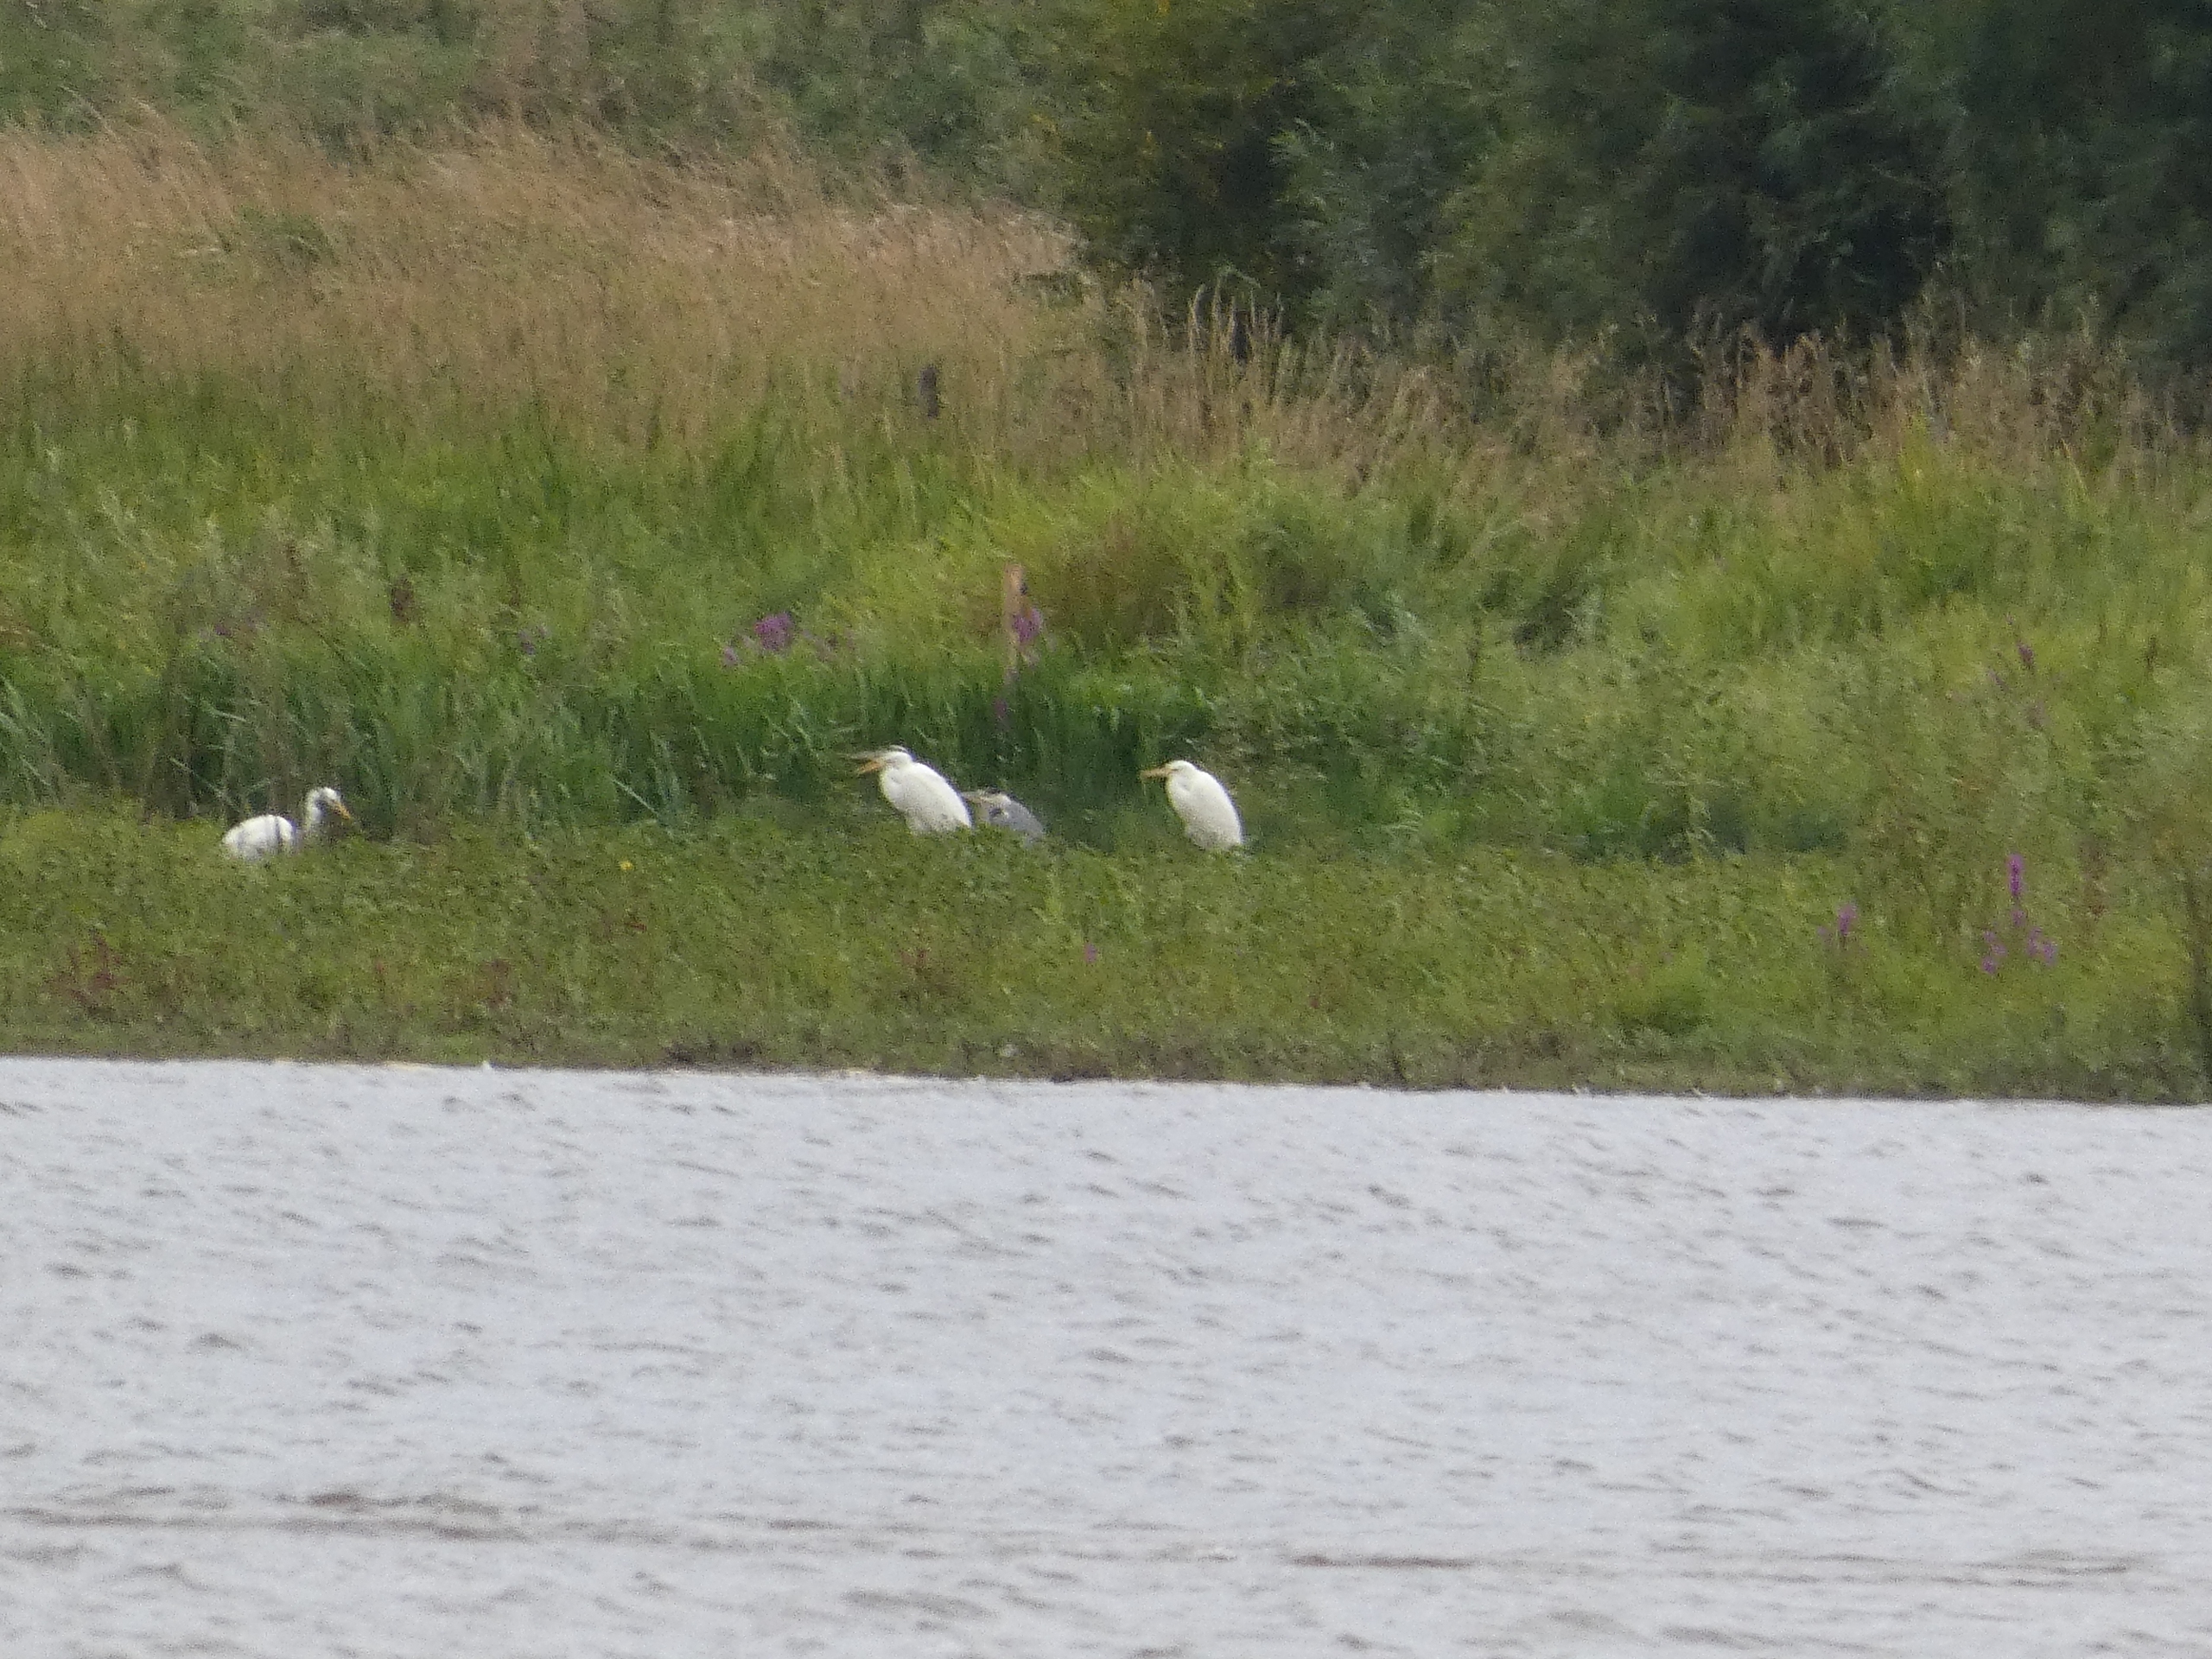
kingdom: Animalia
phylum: Chordata
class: Aves
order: Pelecaniformes
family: Ardeidae
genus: Ardea
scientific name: Ardea cinerea
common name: Fiskehejre
